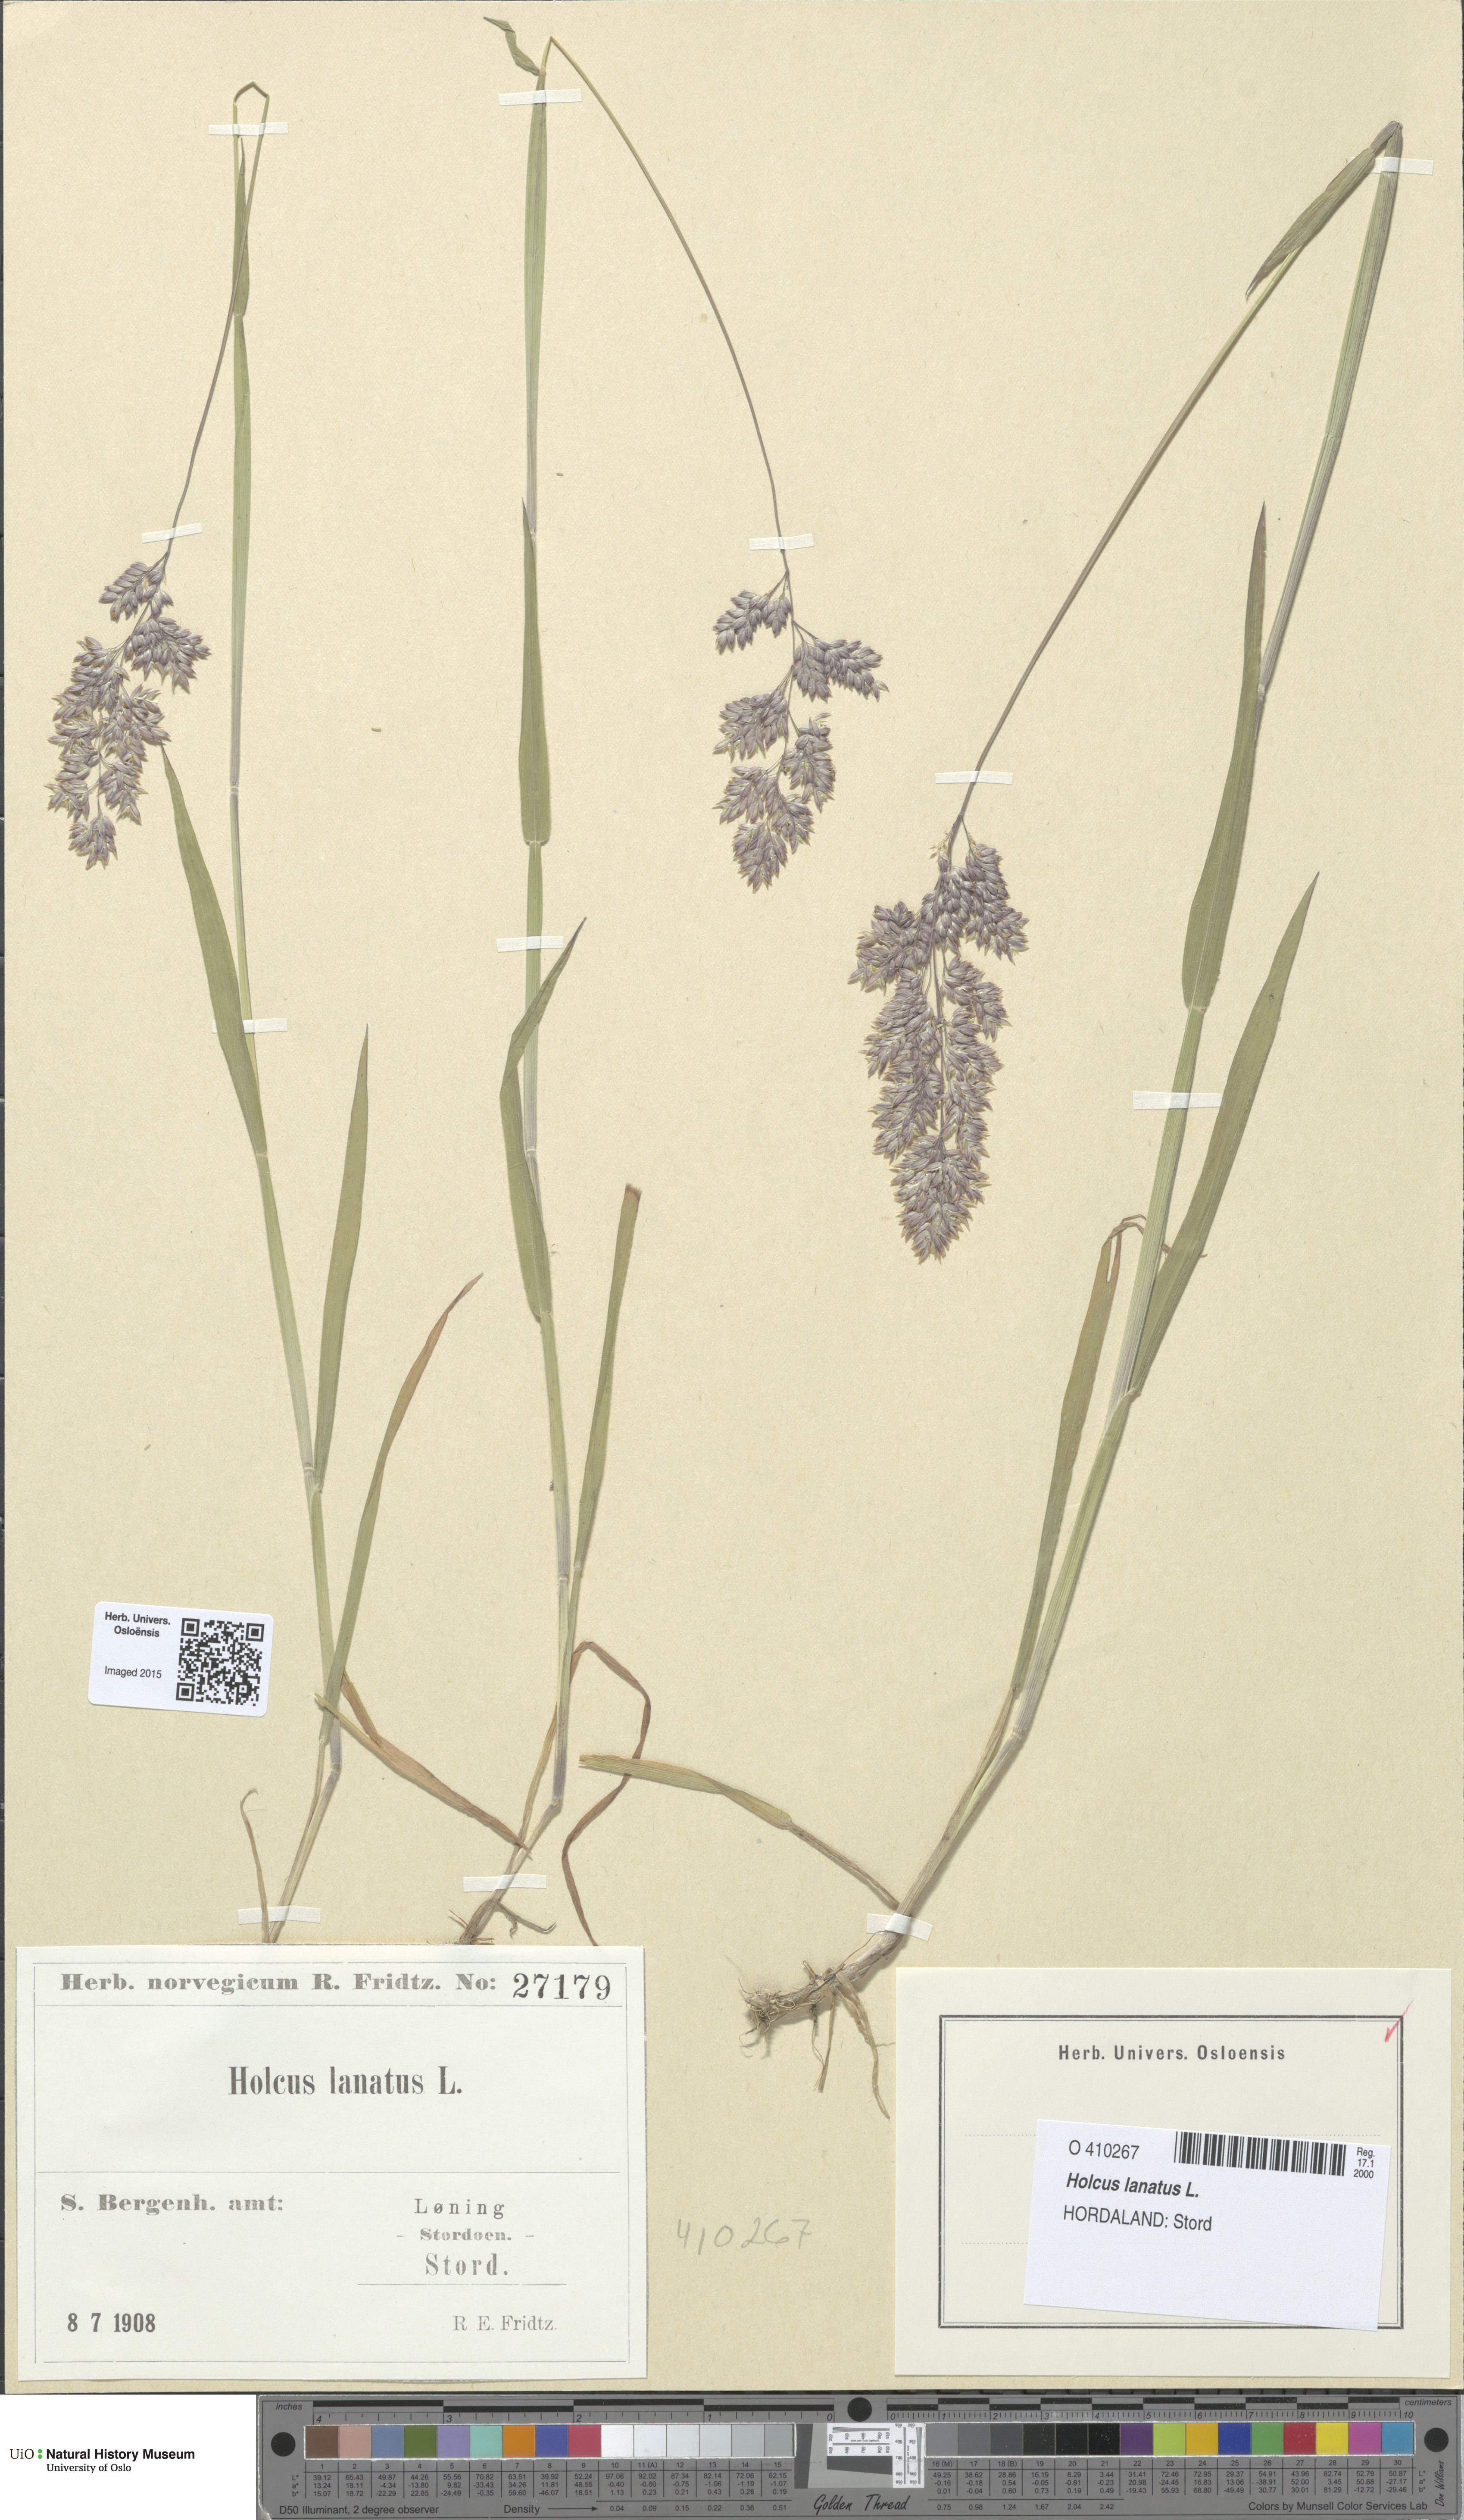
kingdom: Plantae
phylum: Tracheophyta
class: Liliopsida
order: Poales
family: Poaceae
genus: Holcus
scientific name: Holcus lanatus
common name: Yorkshire-fog
